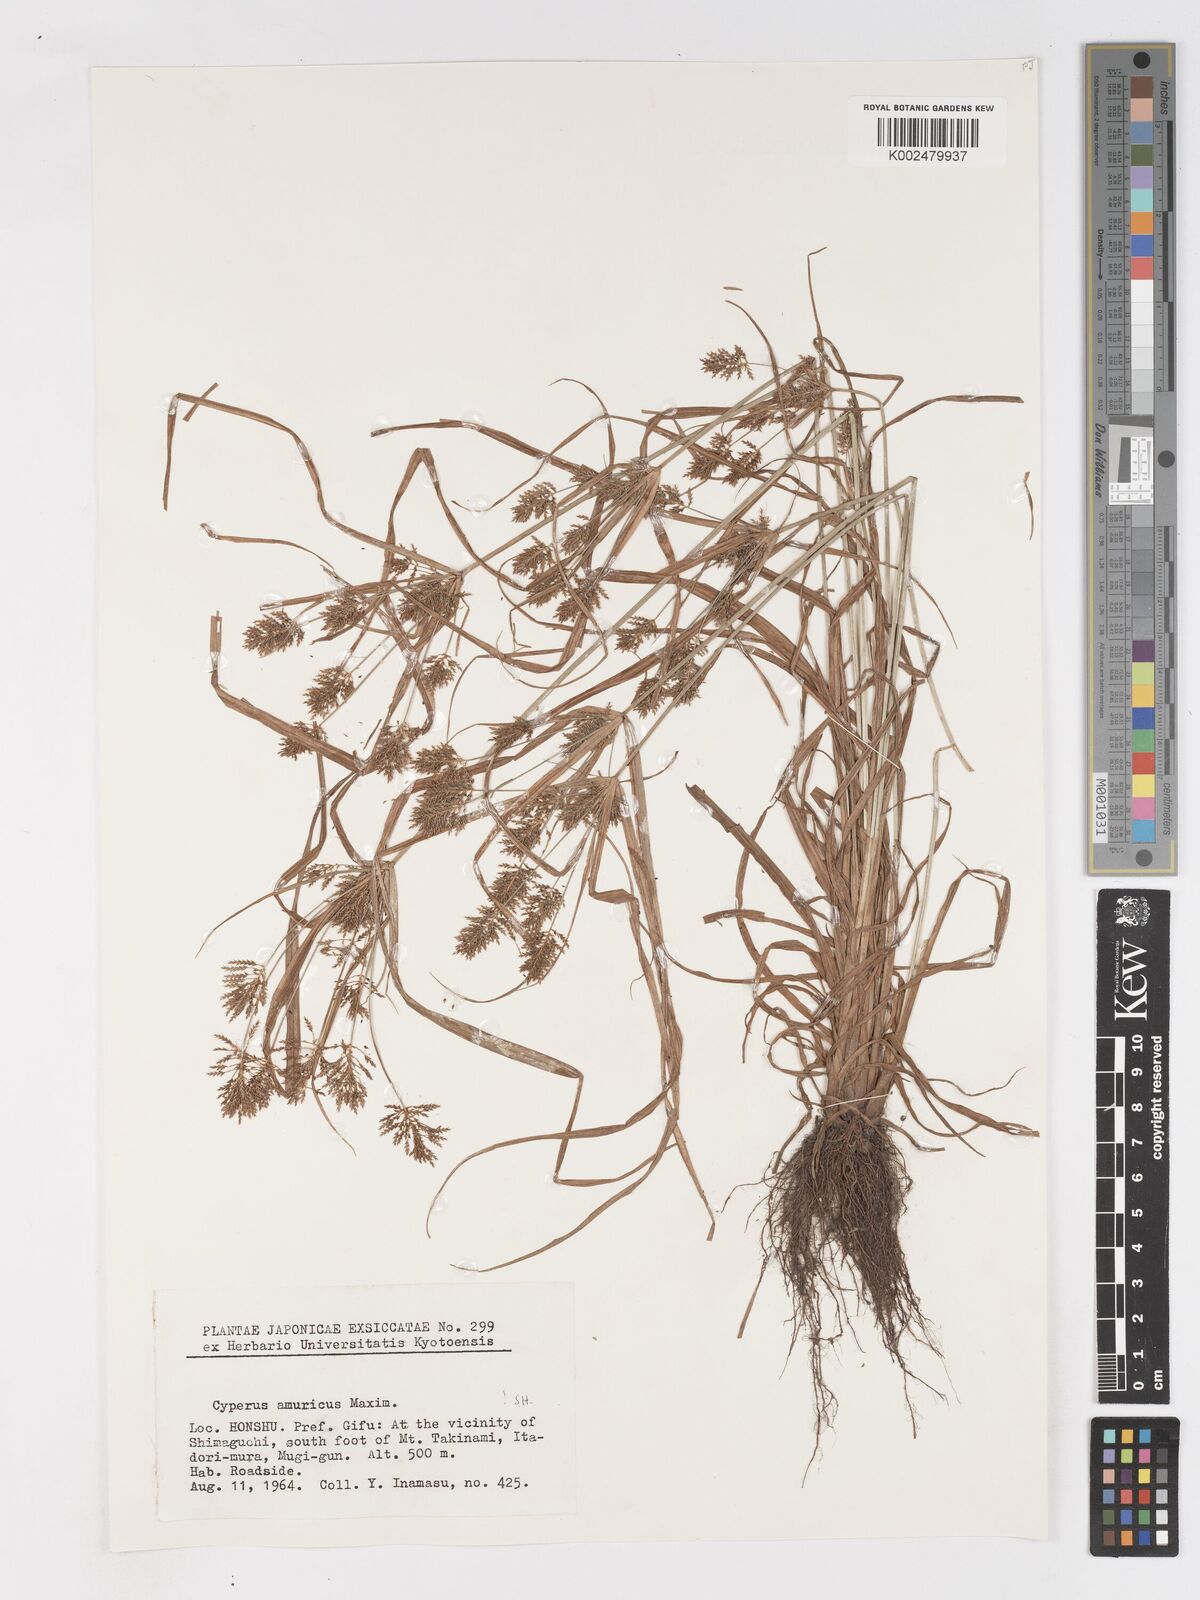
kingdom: Plantae
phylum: Tracheophyta
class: Liliopsida
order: Poales
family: Cyperaceae
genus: Cyperus
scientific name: Cyperus amuricus
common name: Asian flatsedge
